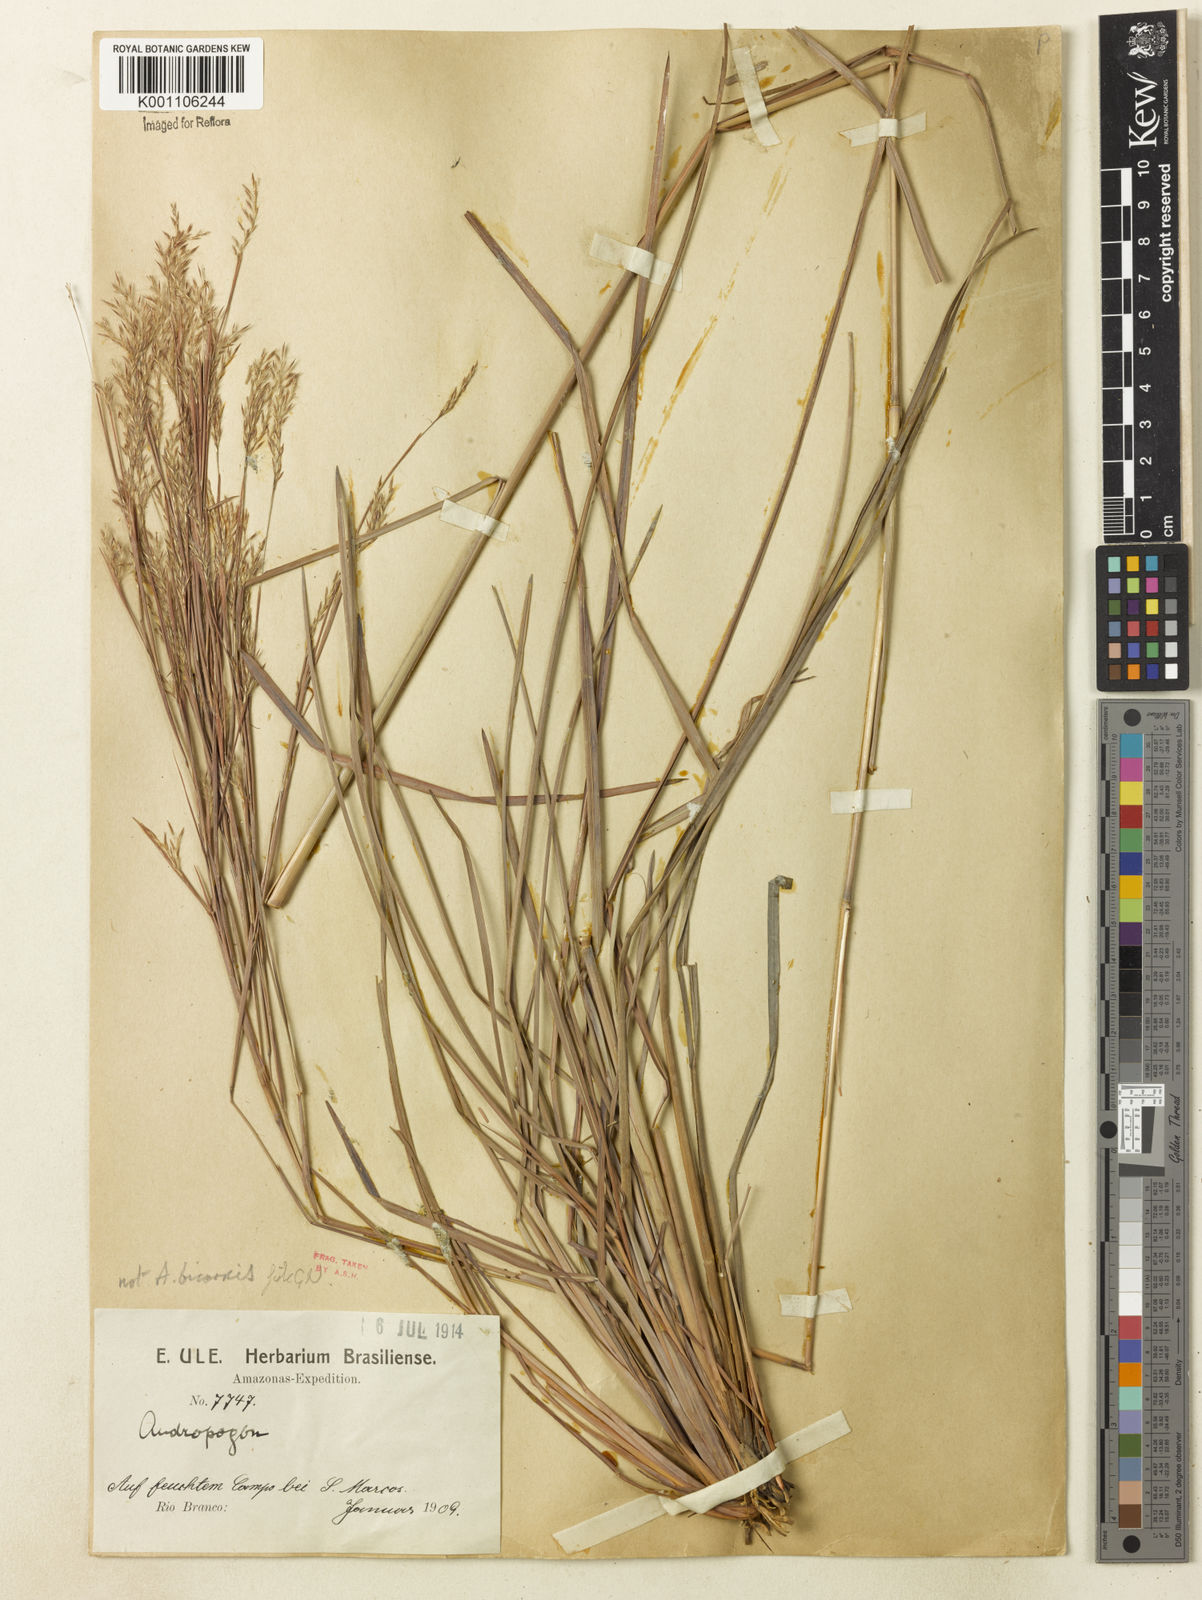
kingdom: Plantae
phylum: Tracheophyta
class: Liliopsida
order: Poales
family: Poaceae
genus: Andropogon
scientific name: Andropogon
